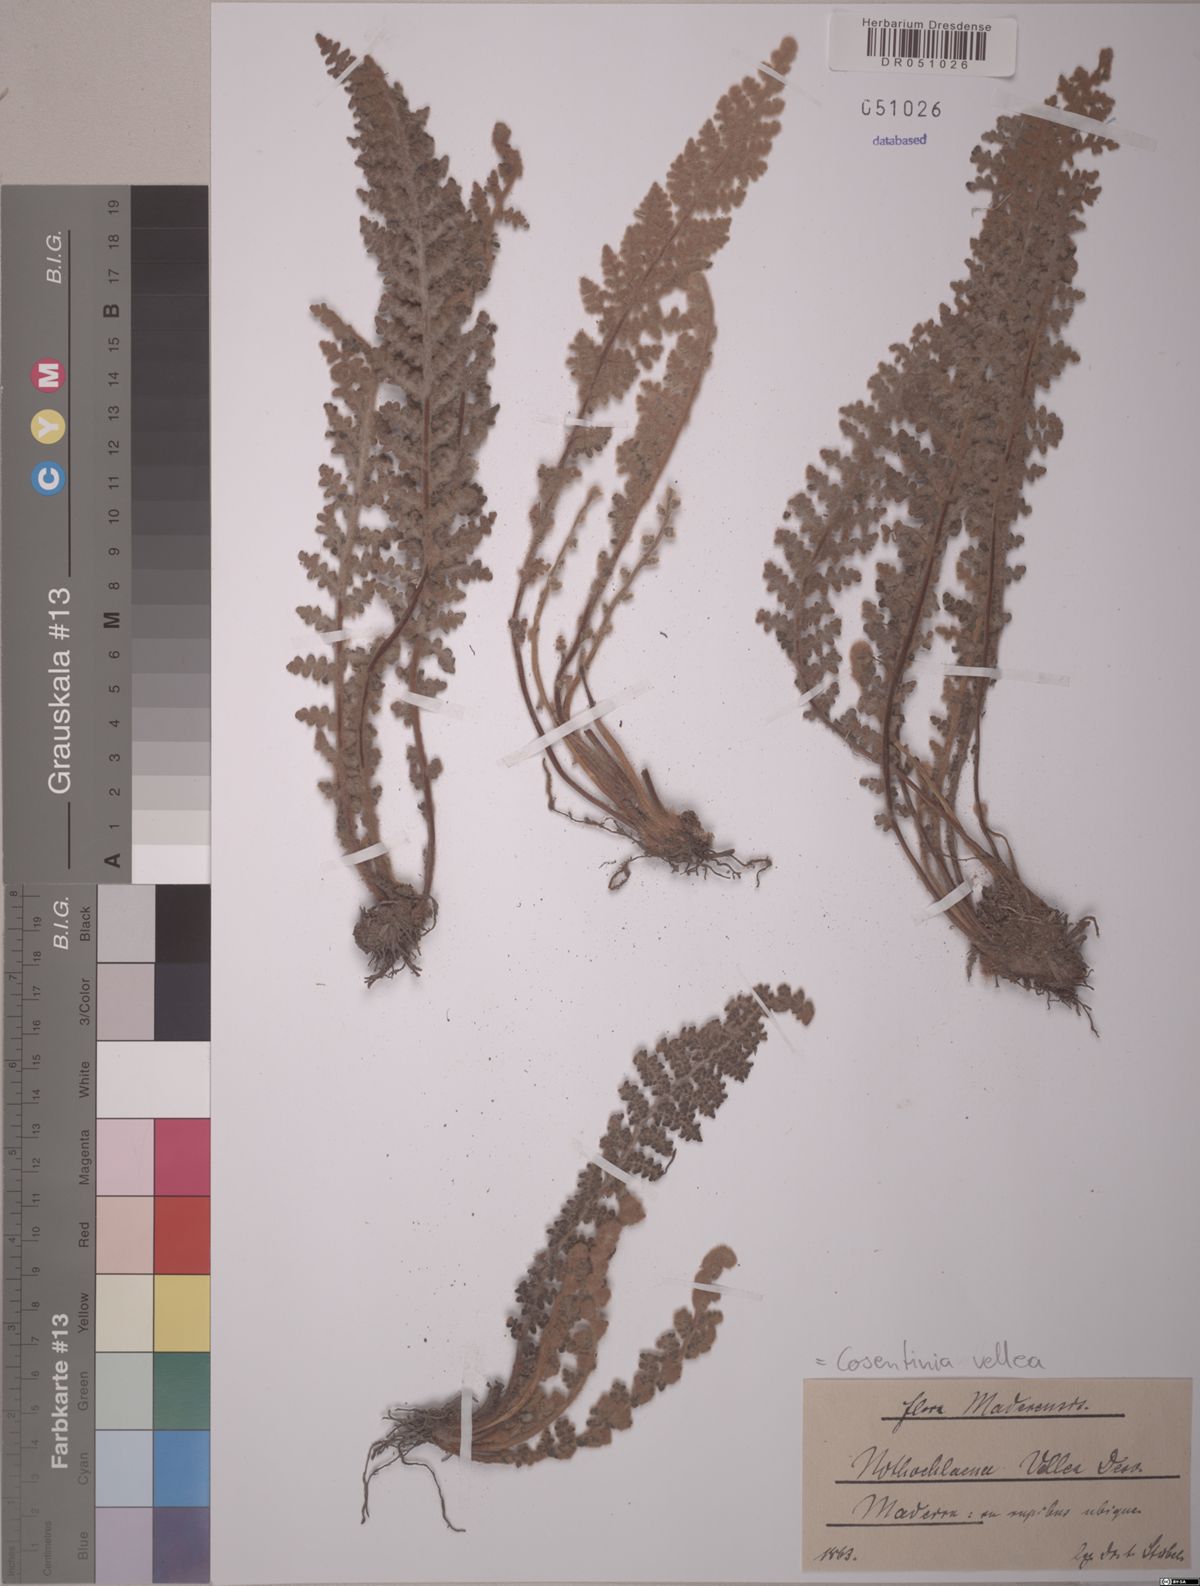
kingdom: Plantae
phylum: Tracheophyta
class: Polypodiopsida
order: Polypodiales
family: Pteridaceae
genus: Cosentinia
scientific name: Cosentinia vellea
